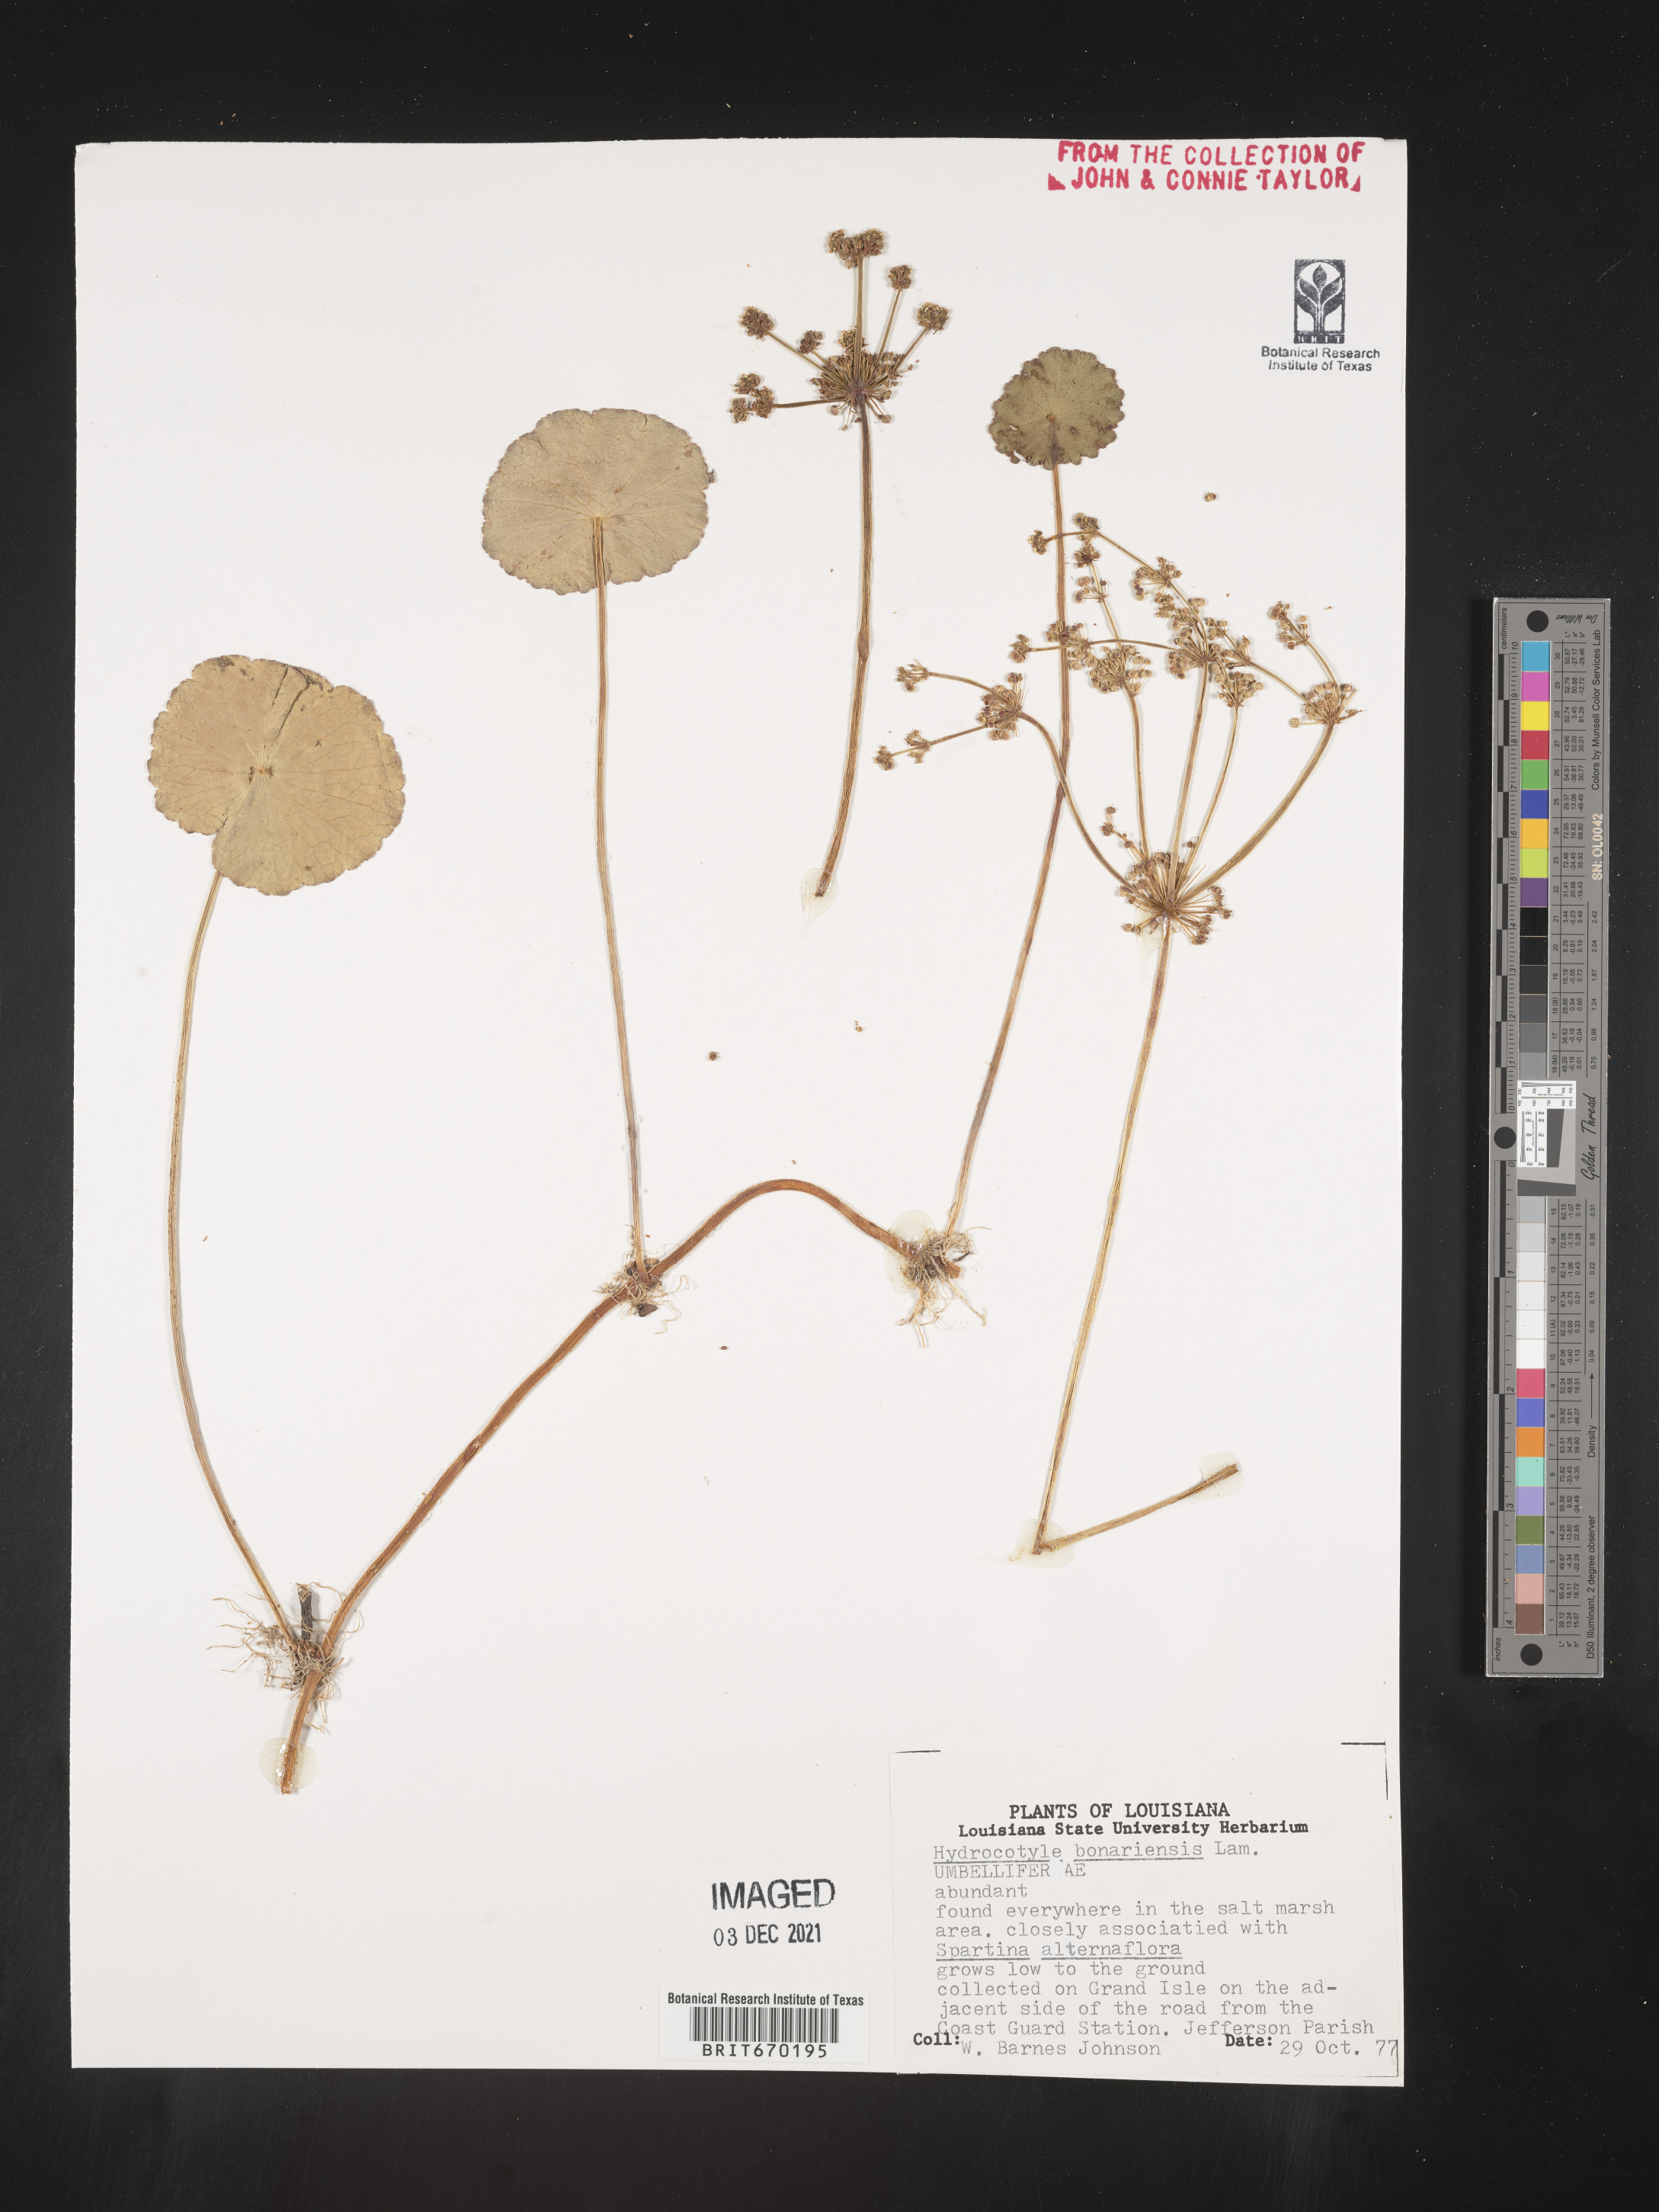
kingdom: Plantae
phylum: Tracheophyta
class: Magnoliopsida
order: Apiales
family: Araliaceae
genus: Hydrocotyle
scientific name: Hydrocotyle bonariensis
